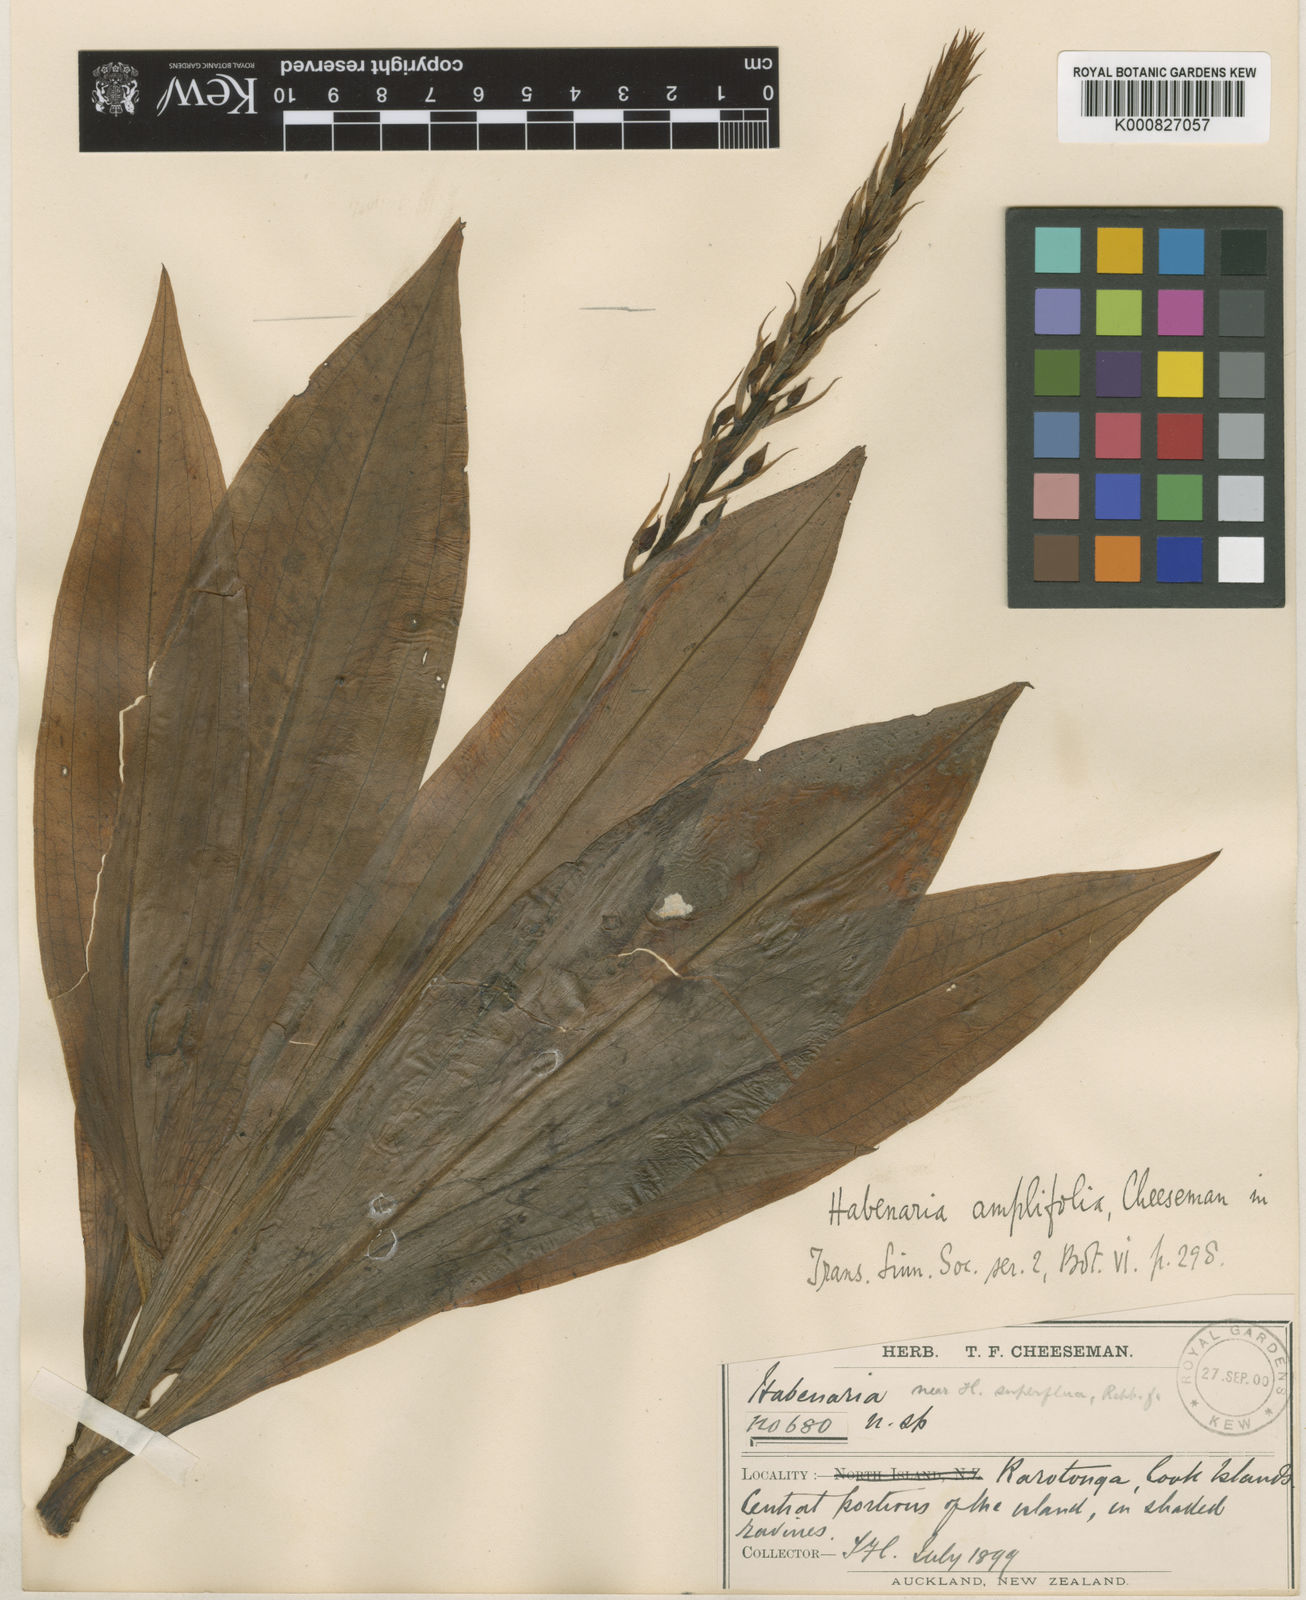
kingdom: Plantae
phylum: Tracheophyta
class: Liliopsida
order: Asparagales
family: Orchidaceae
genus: Habenaria
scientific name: Habenaria amplifolia
